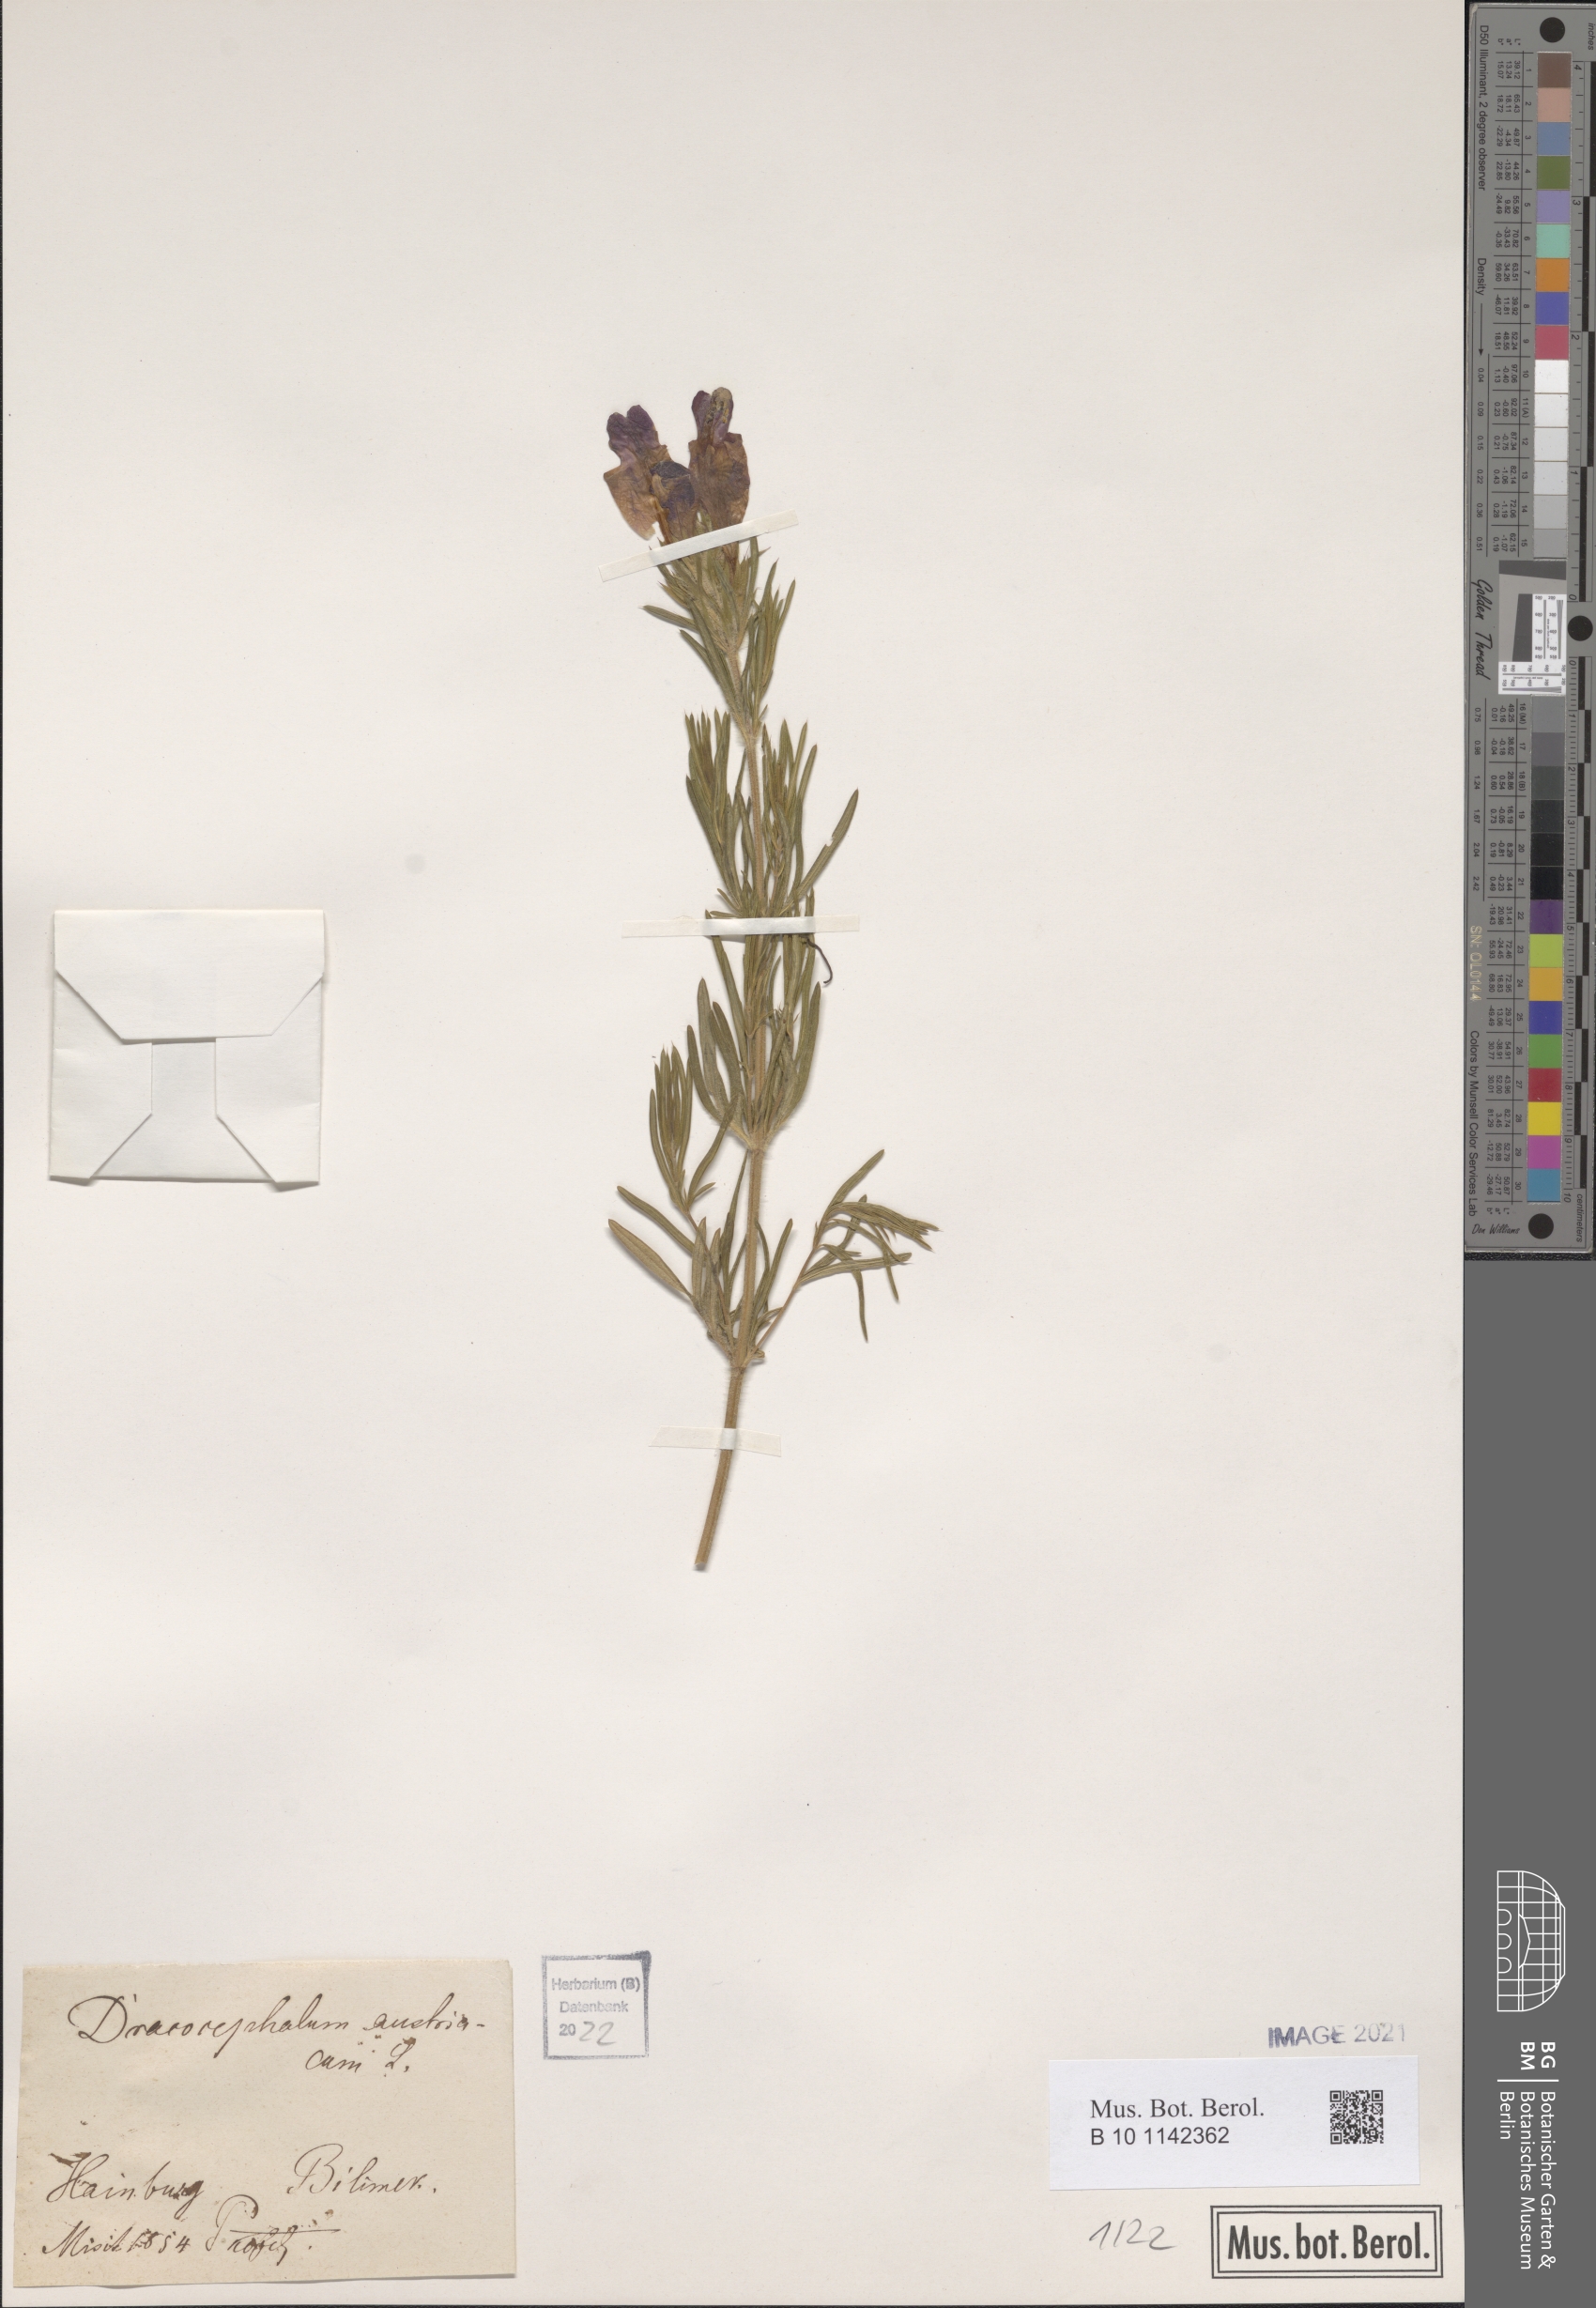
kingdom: Plantae
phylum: Tracheophyta
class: Magnoliopsida
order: Lamiales
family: Lamiaceae
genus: Dracocephalum
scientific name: Dracocephalum austriacum
